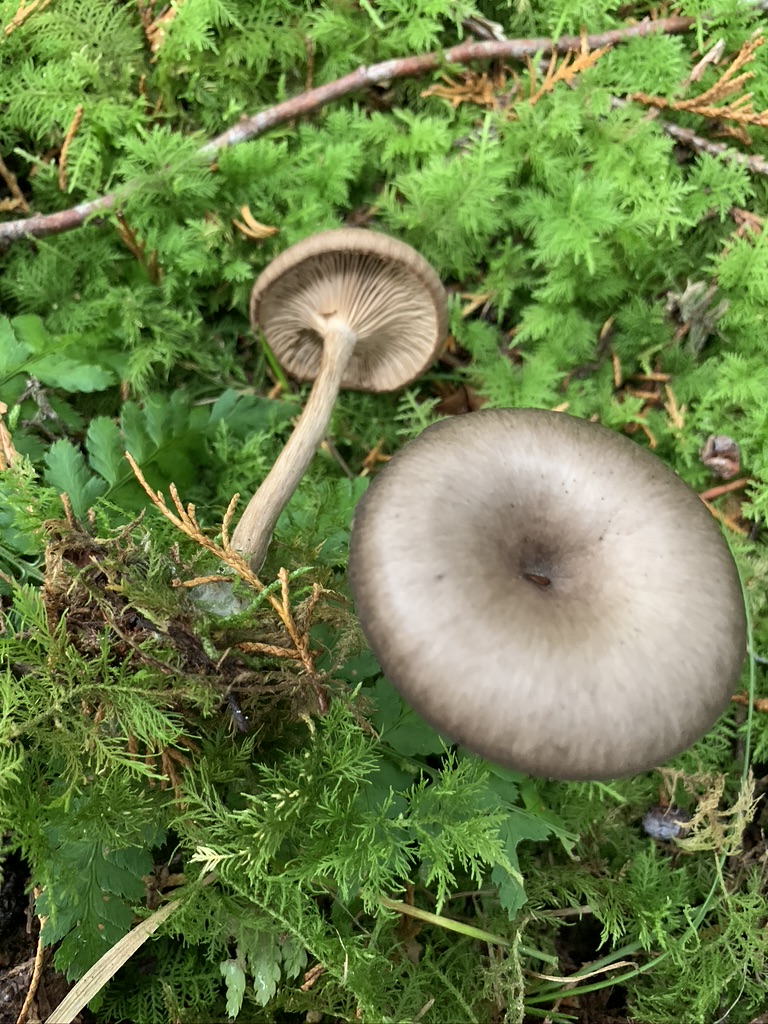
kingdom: Fungi
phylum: Basidiomycota
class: Agaricomycetes
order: Agaricales
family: Pseudoclitocybaceae
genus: Pseudoclitocybe
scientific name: Pseudoclitocybe cyathiformis
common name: almindelig bægertragthat
